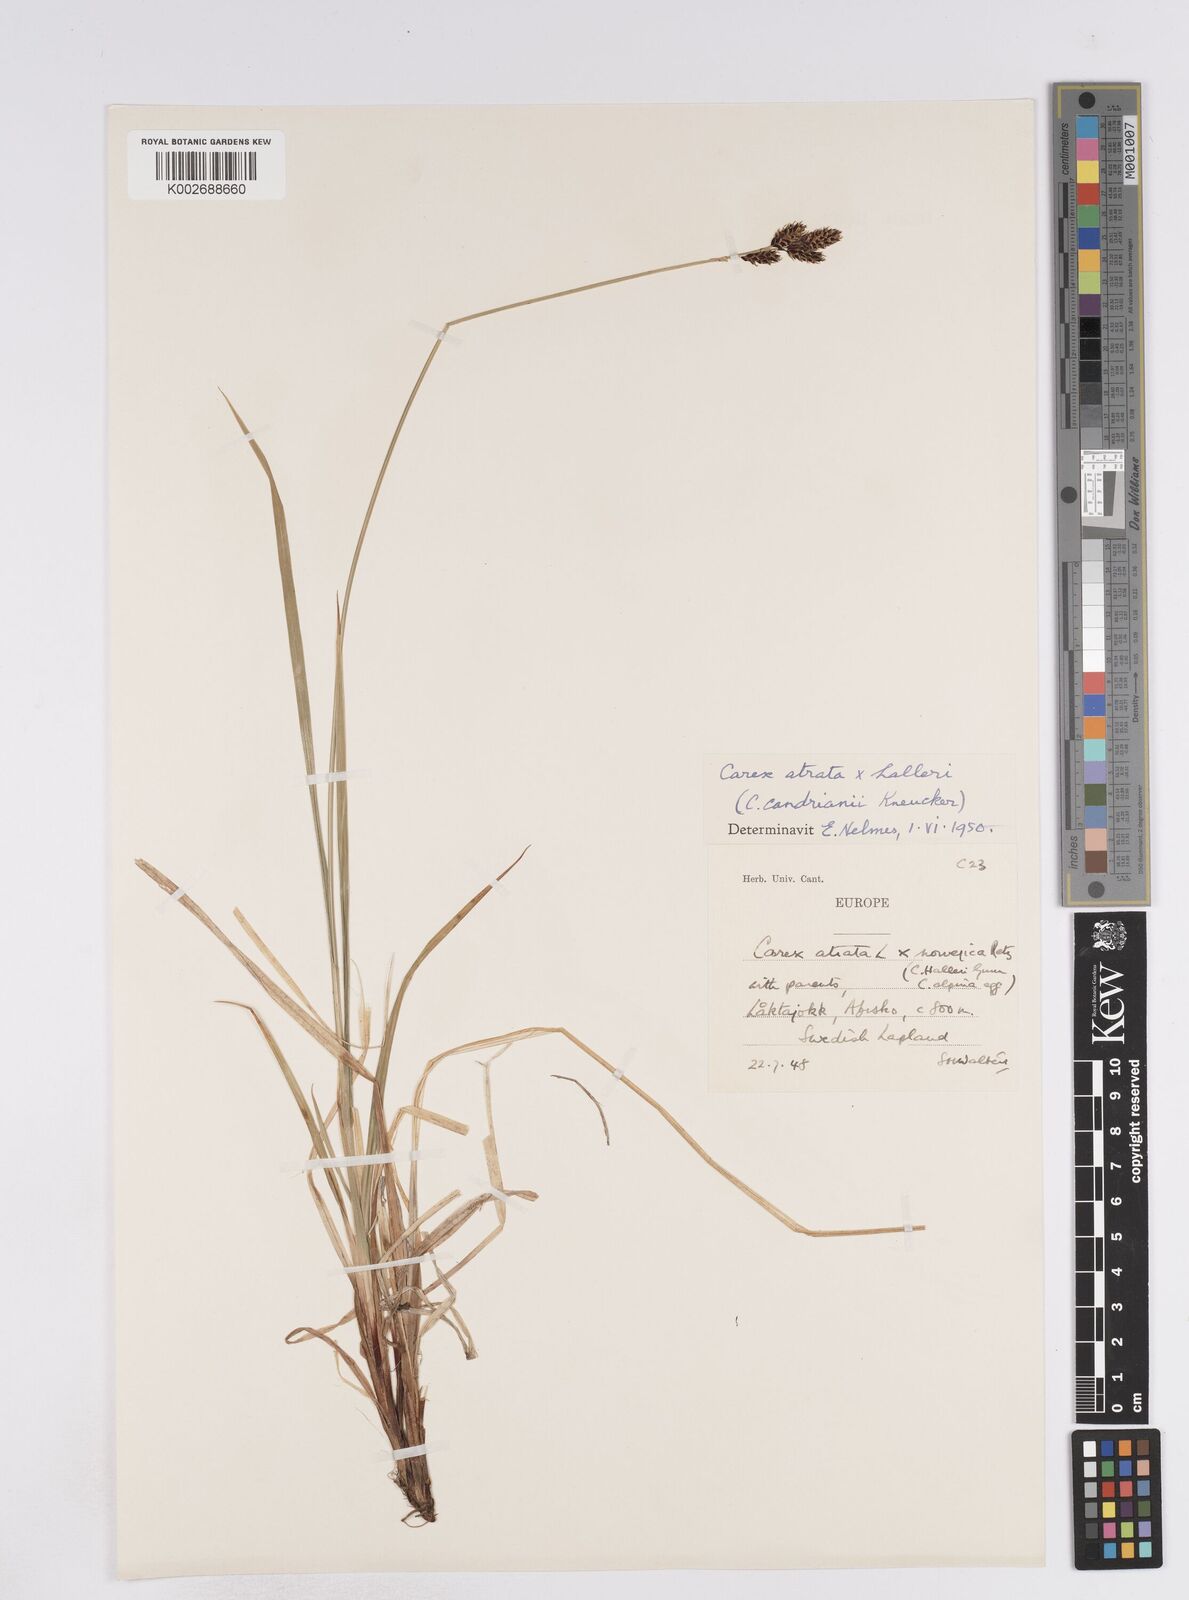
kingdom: Plantae
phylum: Tracheophyta
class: Liliopsida
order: Poales
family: Cyperaceae
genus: Carex
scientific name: Carex norvegica
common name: Close-headed alpine-sedge
